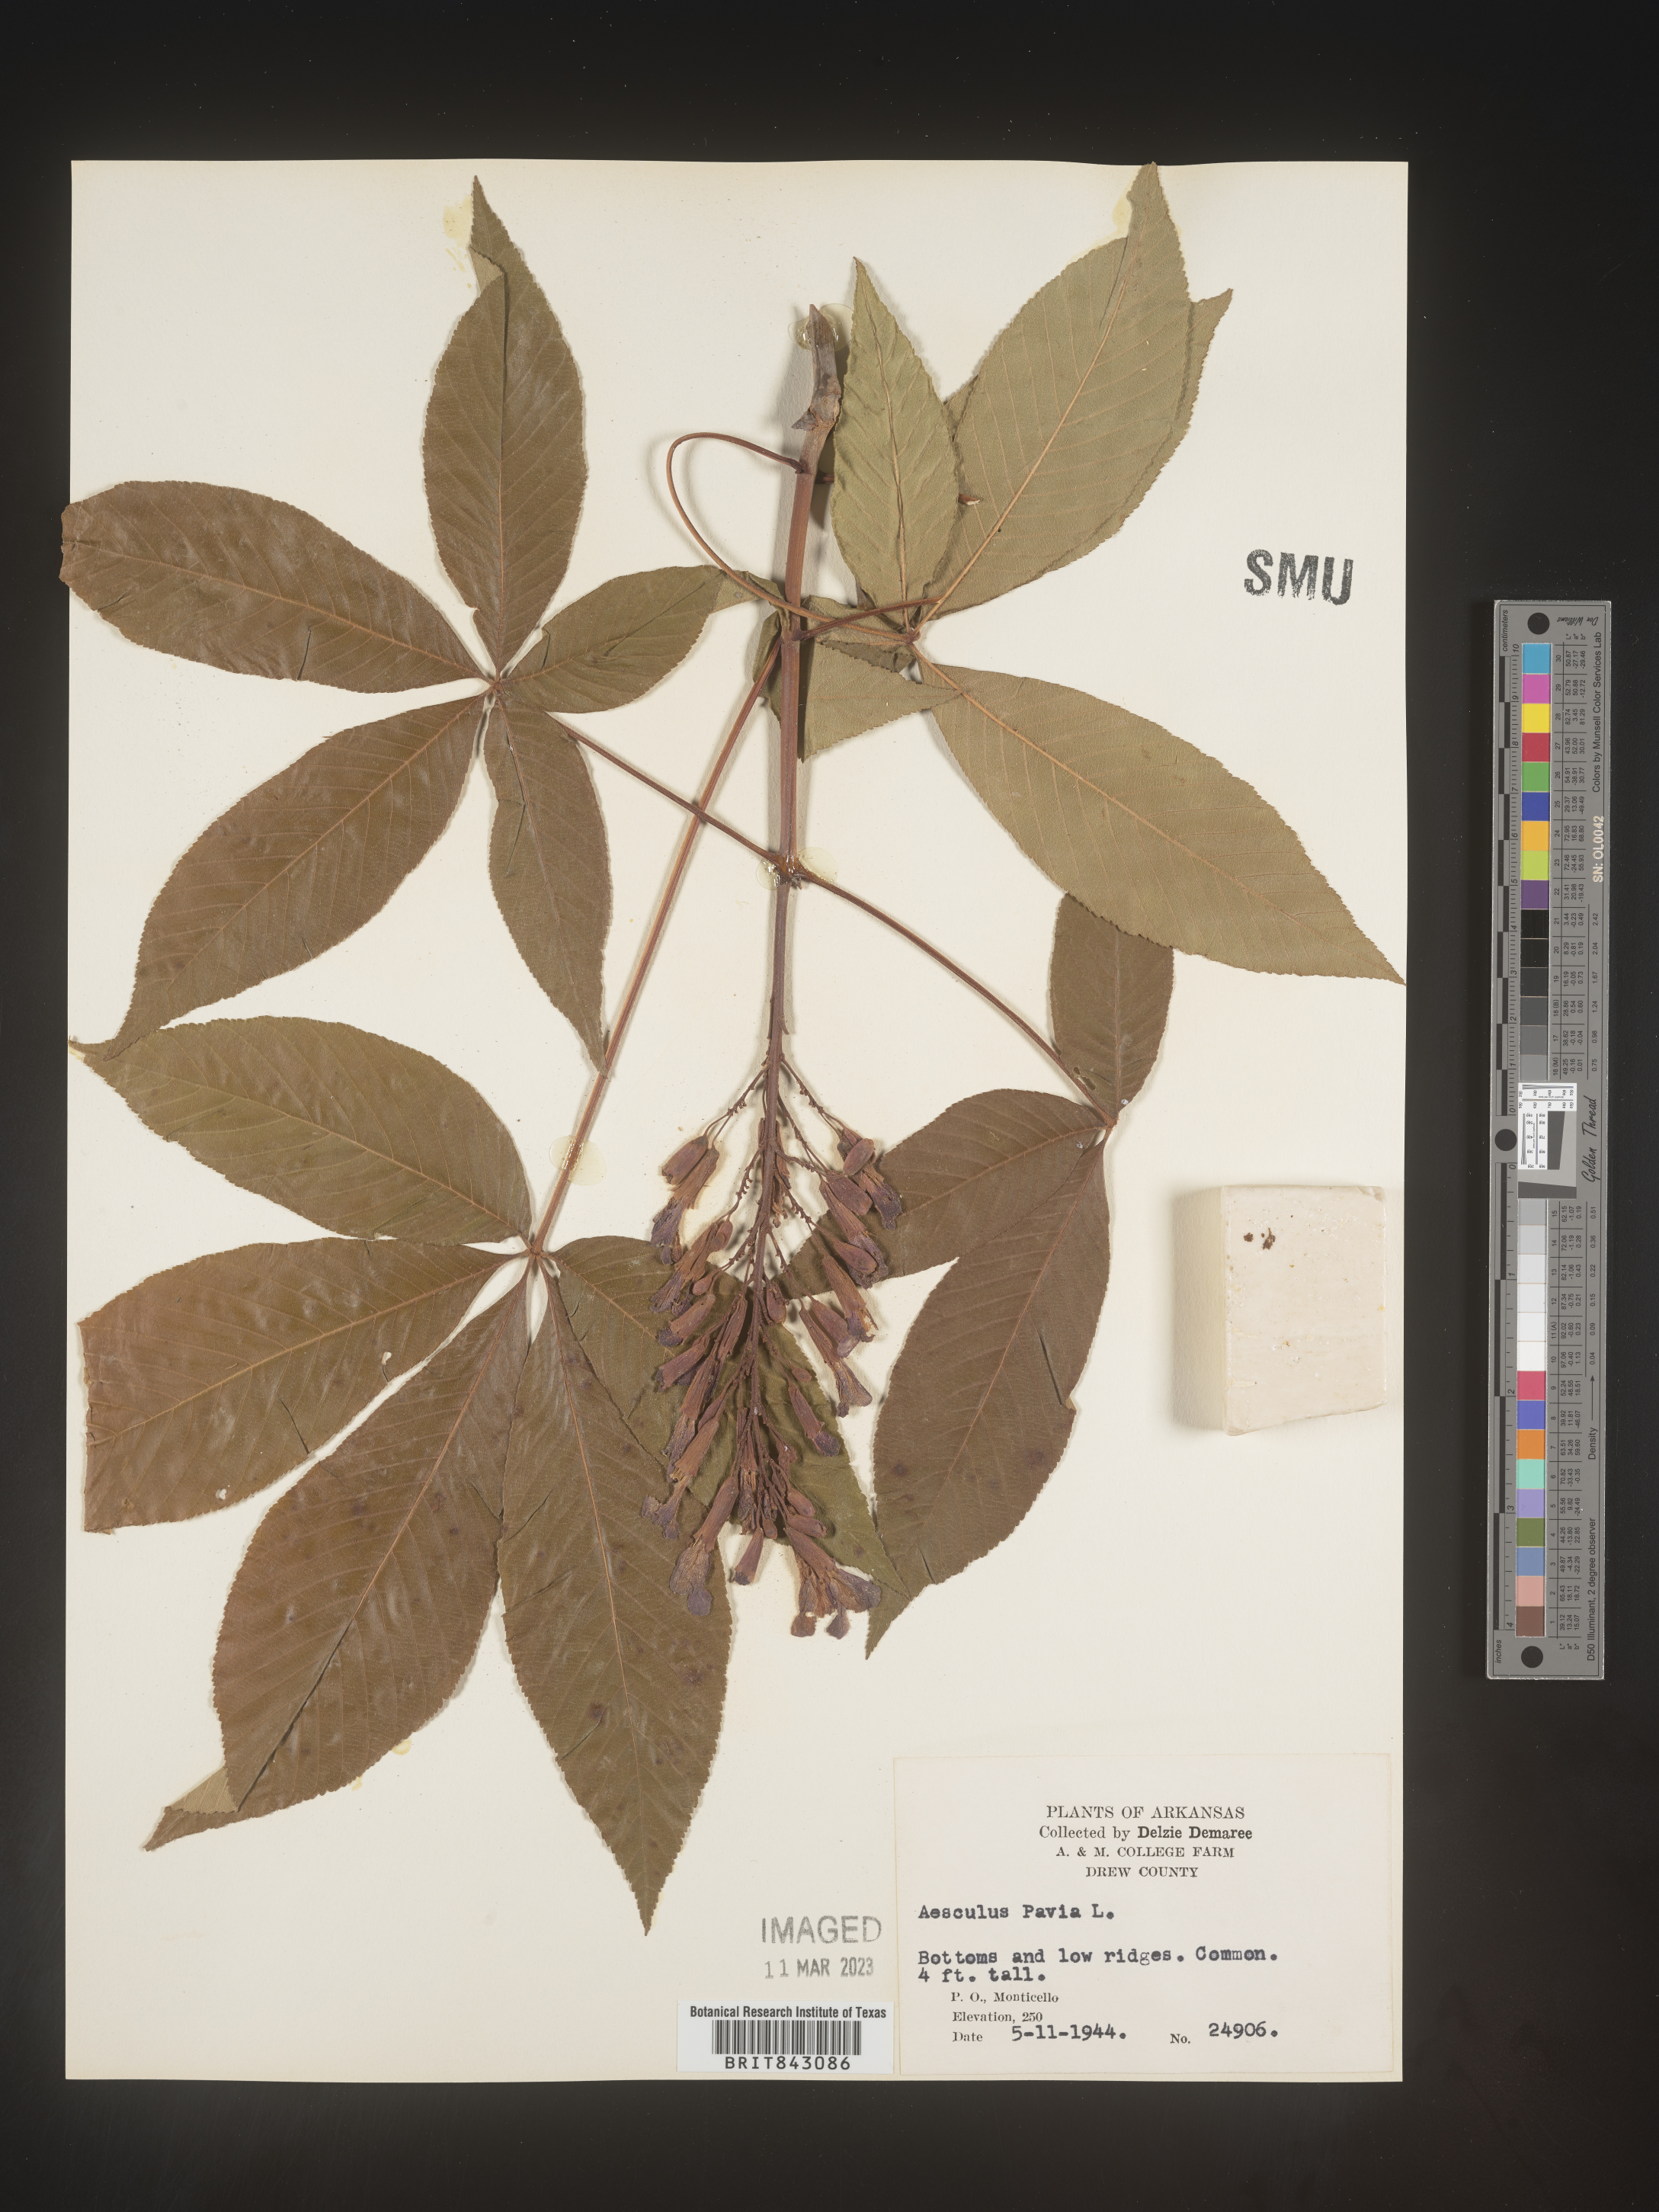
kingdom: Plantae
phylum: Tracheophyta
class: Magnoliopsida
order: Sapindales
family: Sapindaceae
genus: Aesculus
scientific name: Aesculus pavia
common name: Red buckeye
